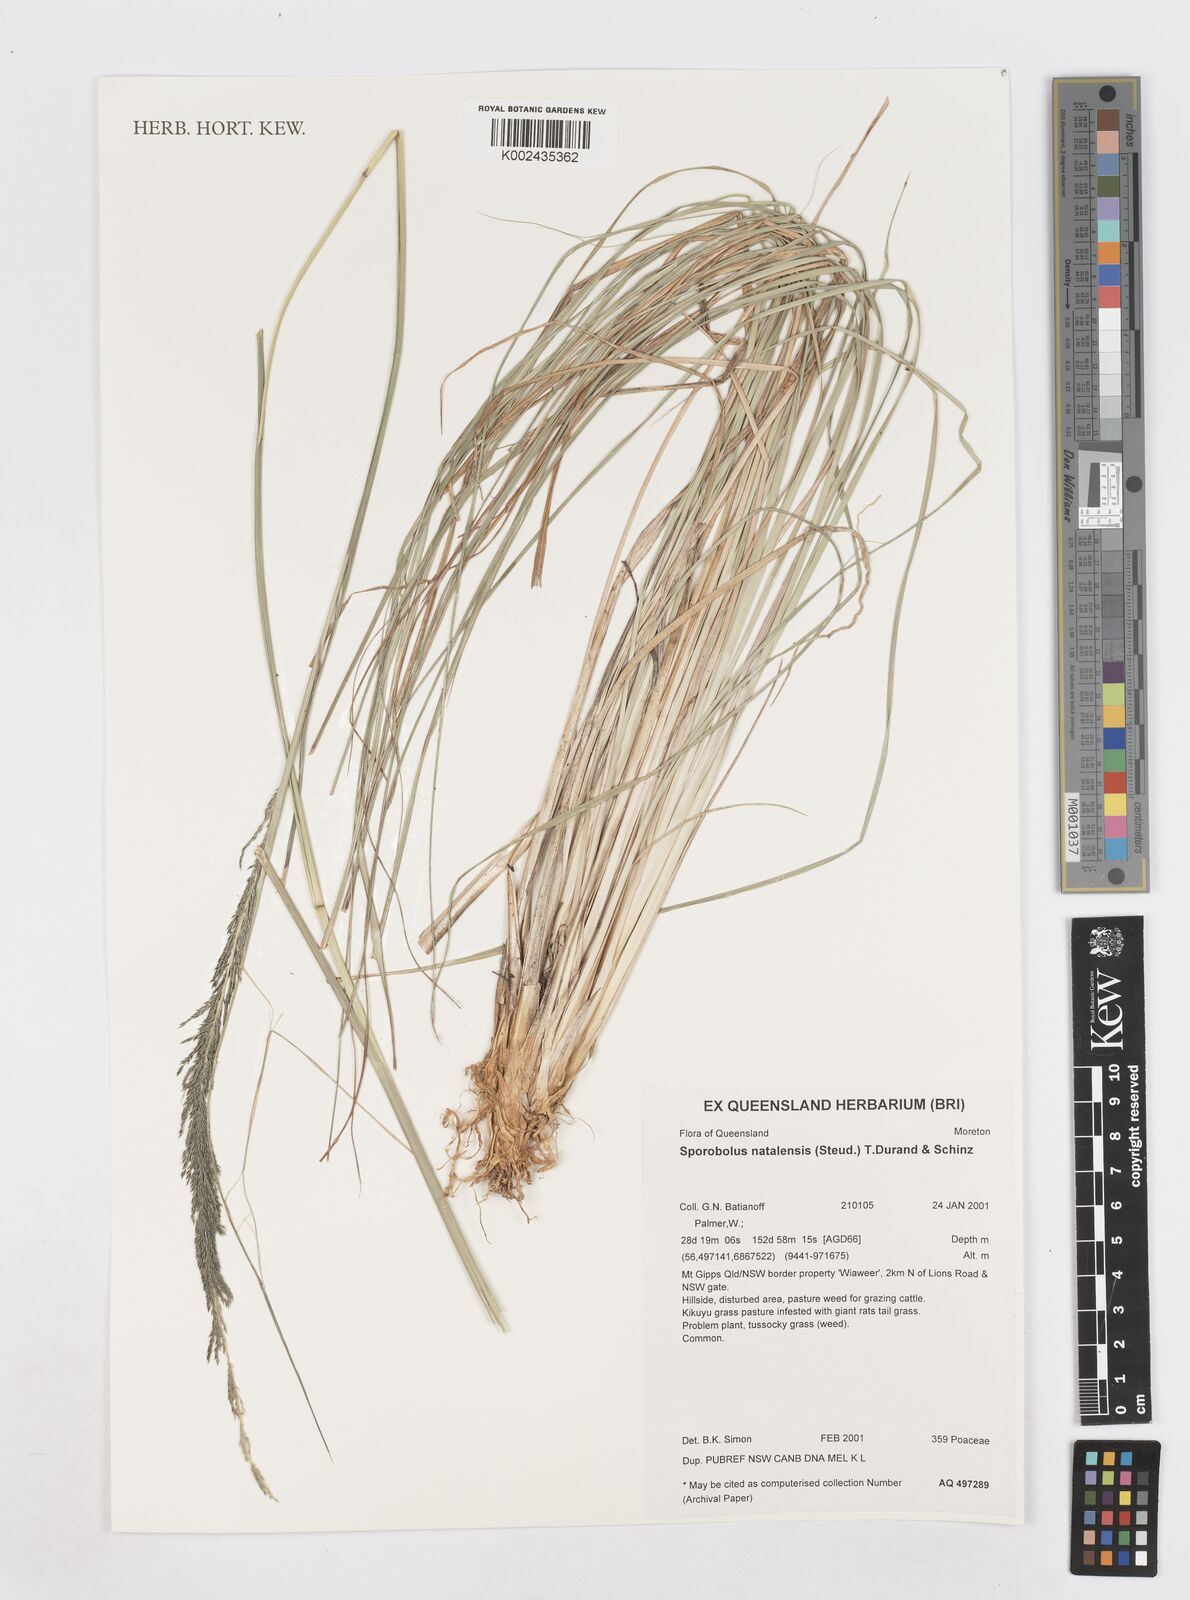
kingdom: Plantae
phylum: Tracheophyta
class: Liliopsida
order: Poales
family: Poaceae
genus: Sporobolus
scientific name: Sporobolus natalensis
